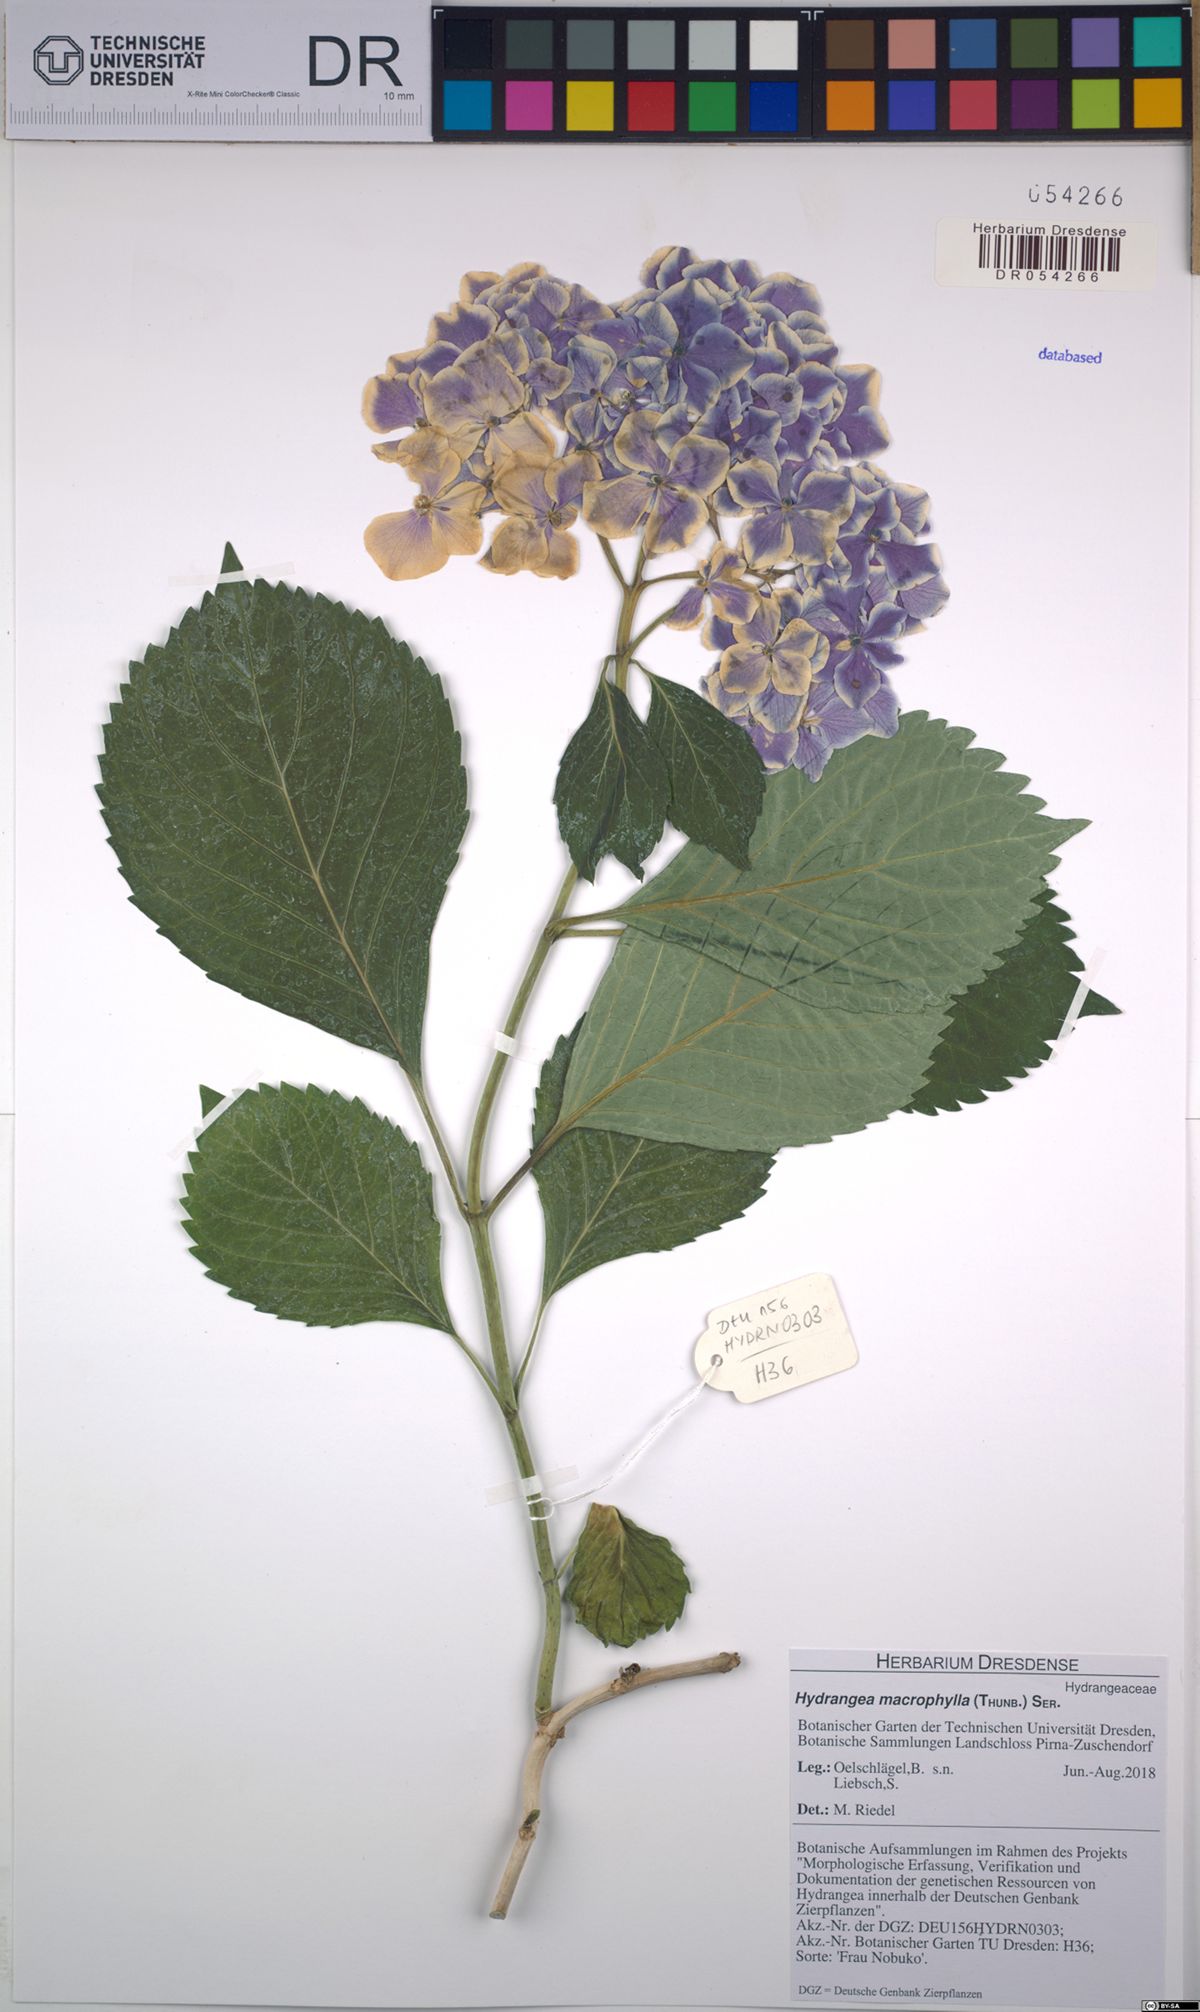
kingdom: Plantae
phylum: Tracheophyta
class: Magnoliopsida
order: Cornales
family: Hydrangeaceae
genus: Hydrangea
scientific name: Hydrangea macrophylla
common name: Hydrangea
